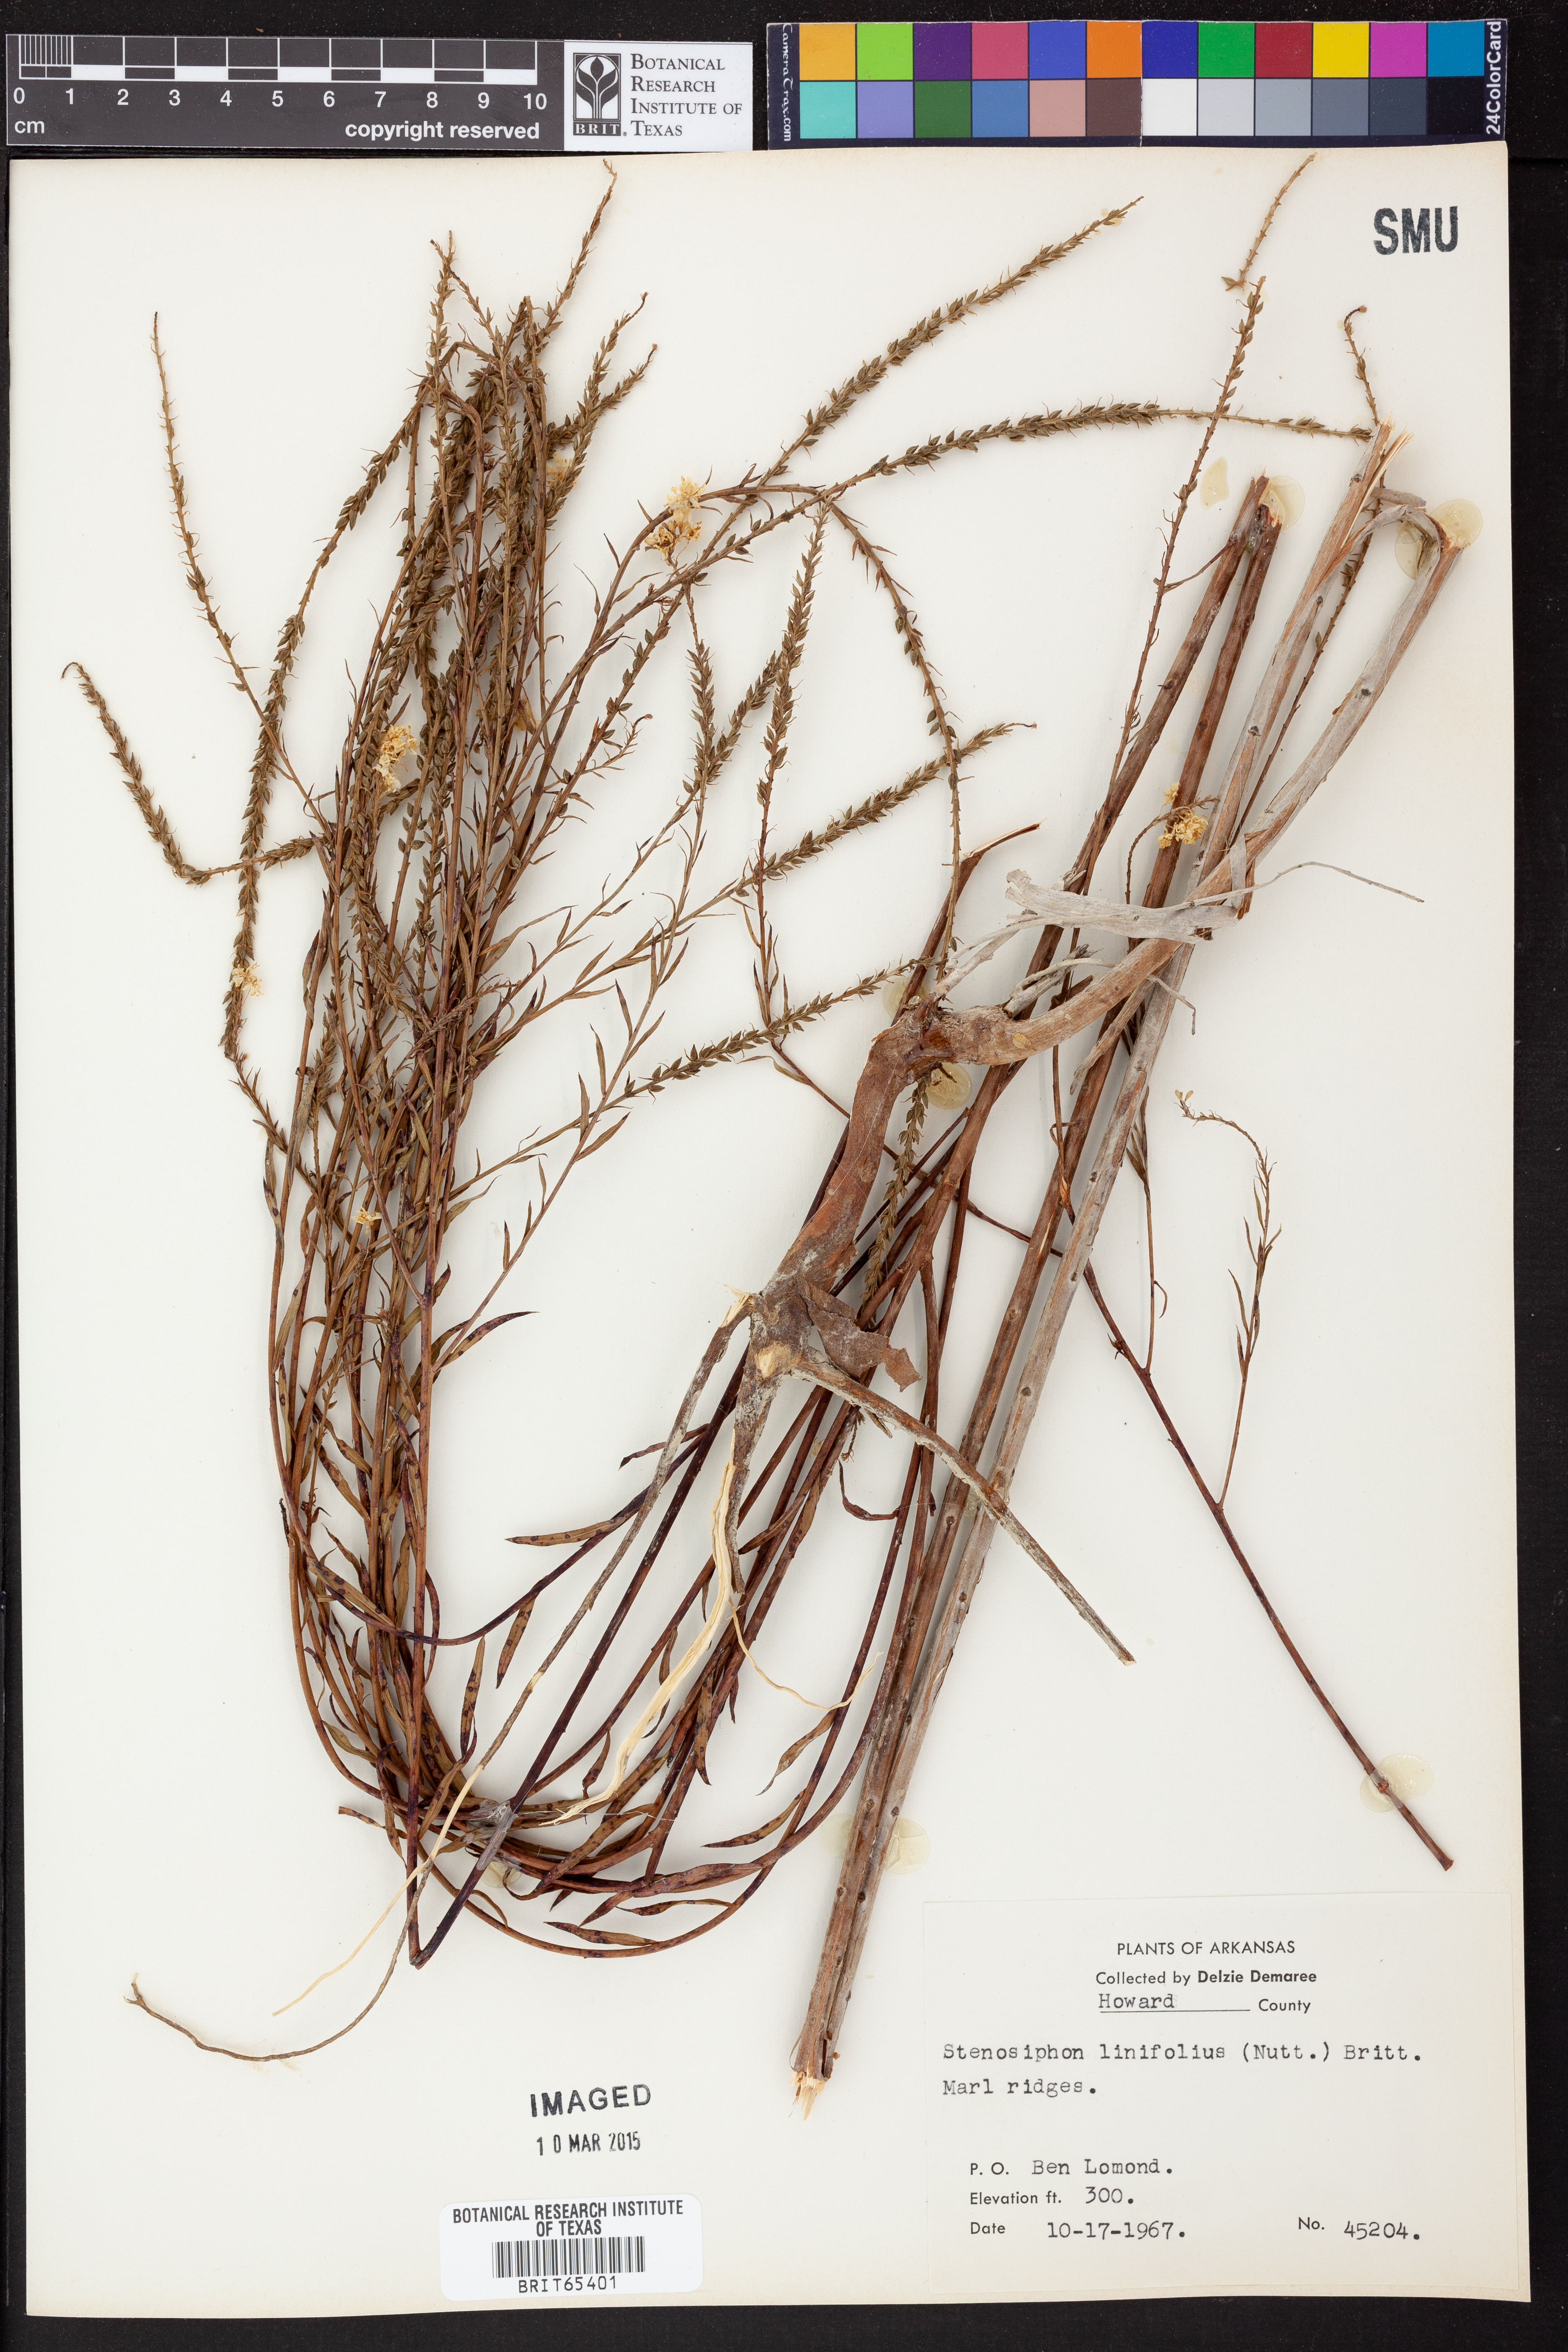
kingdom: Plantae
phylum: Tracheophyta
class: Magnoliopsida
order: Myrtales
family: Onagraceae
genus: Oenothera
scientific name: Oenothera glaucifolia
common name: False gaura
